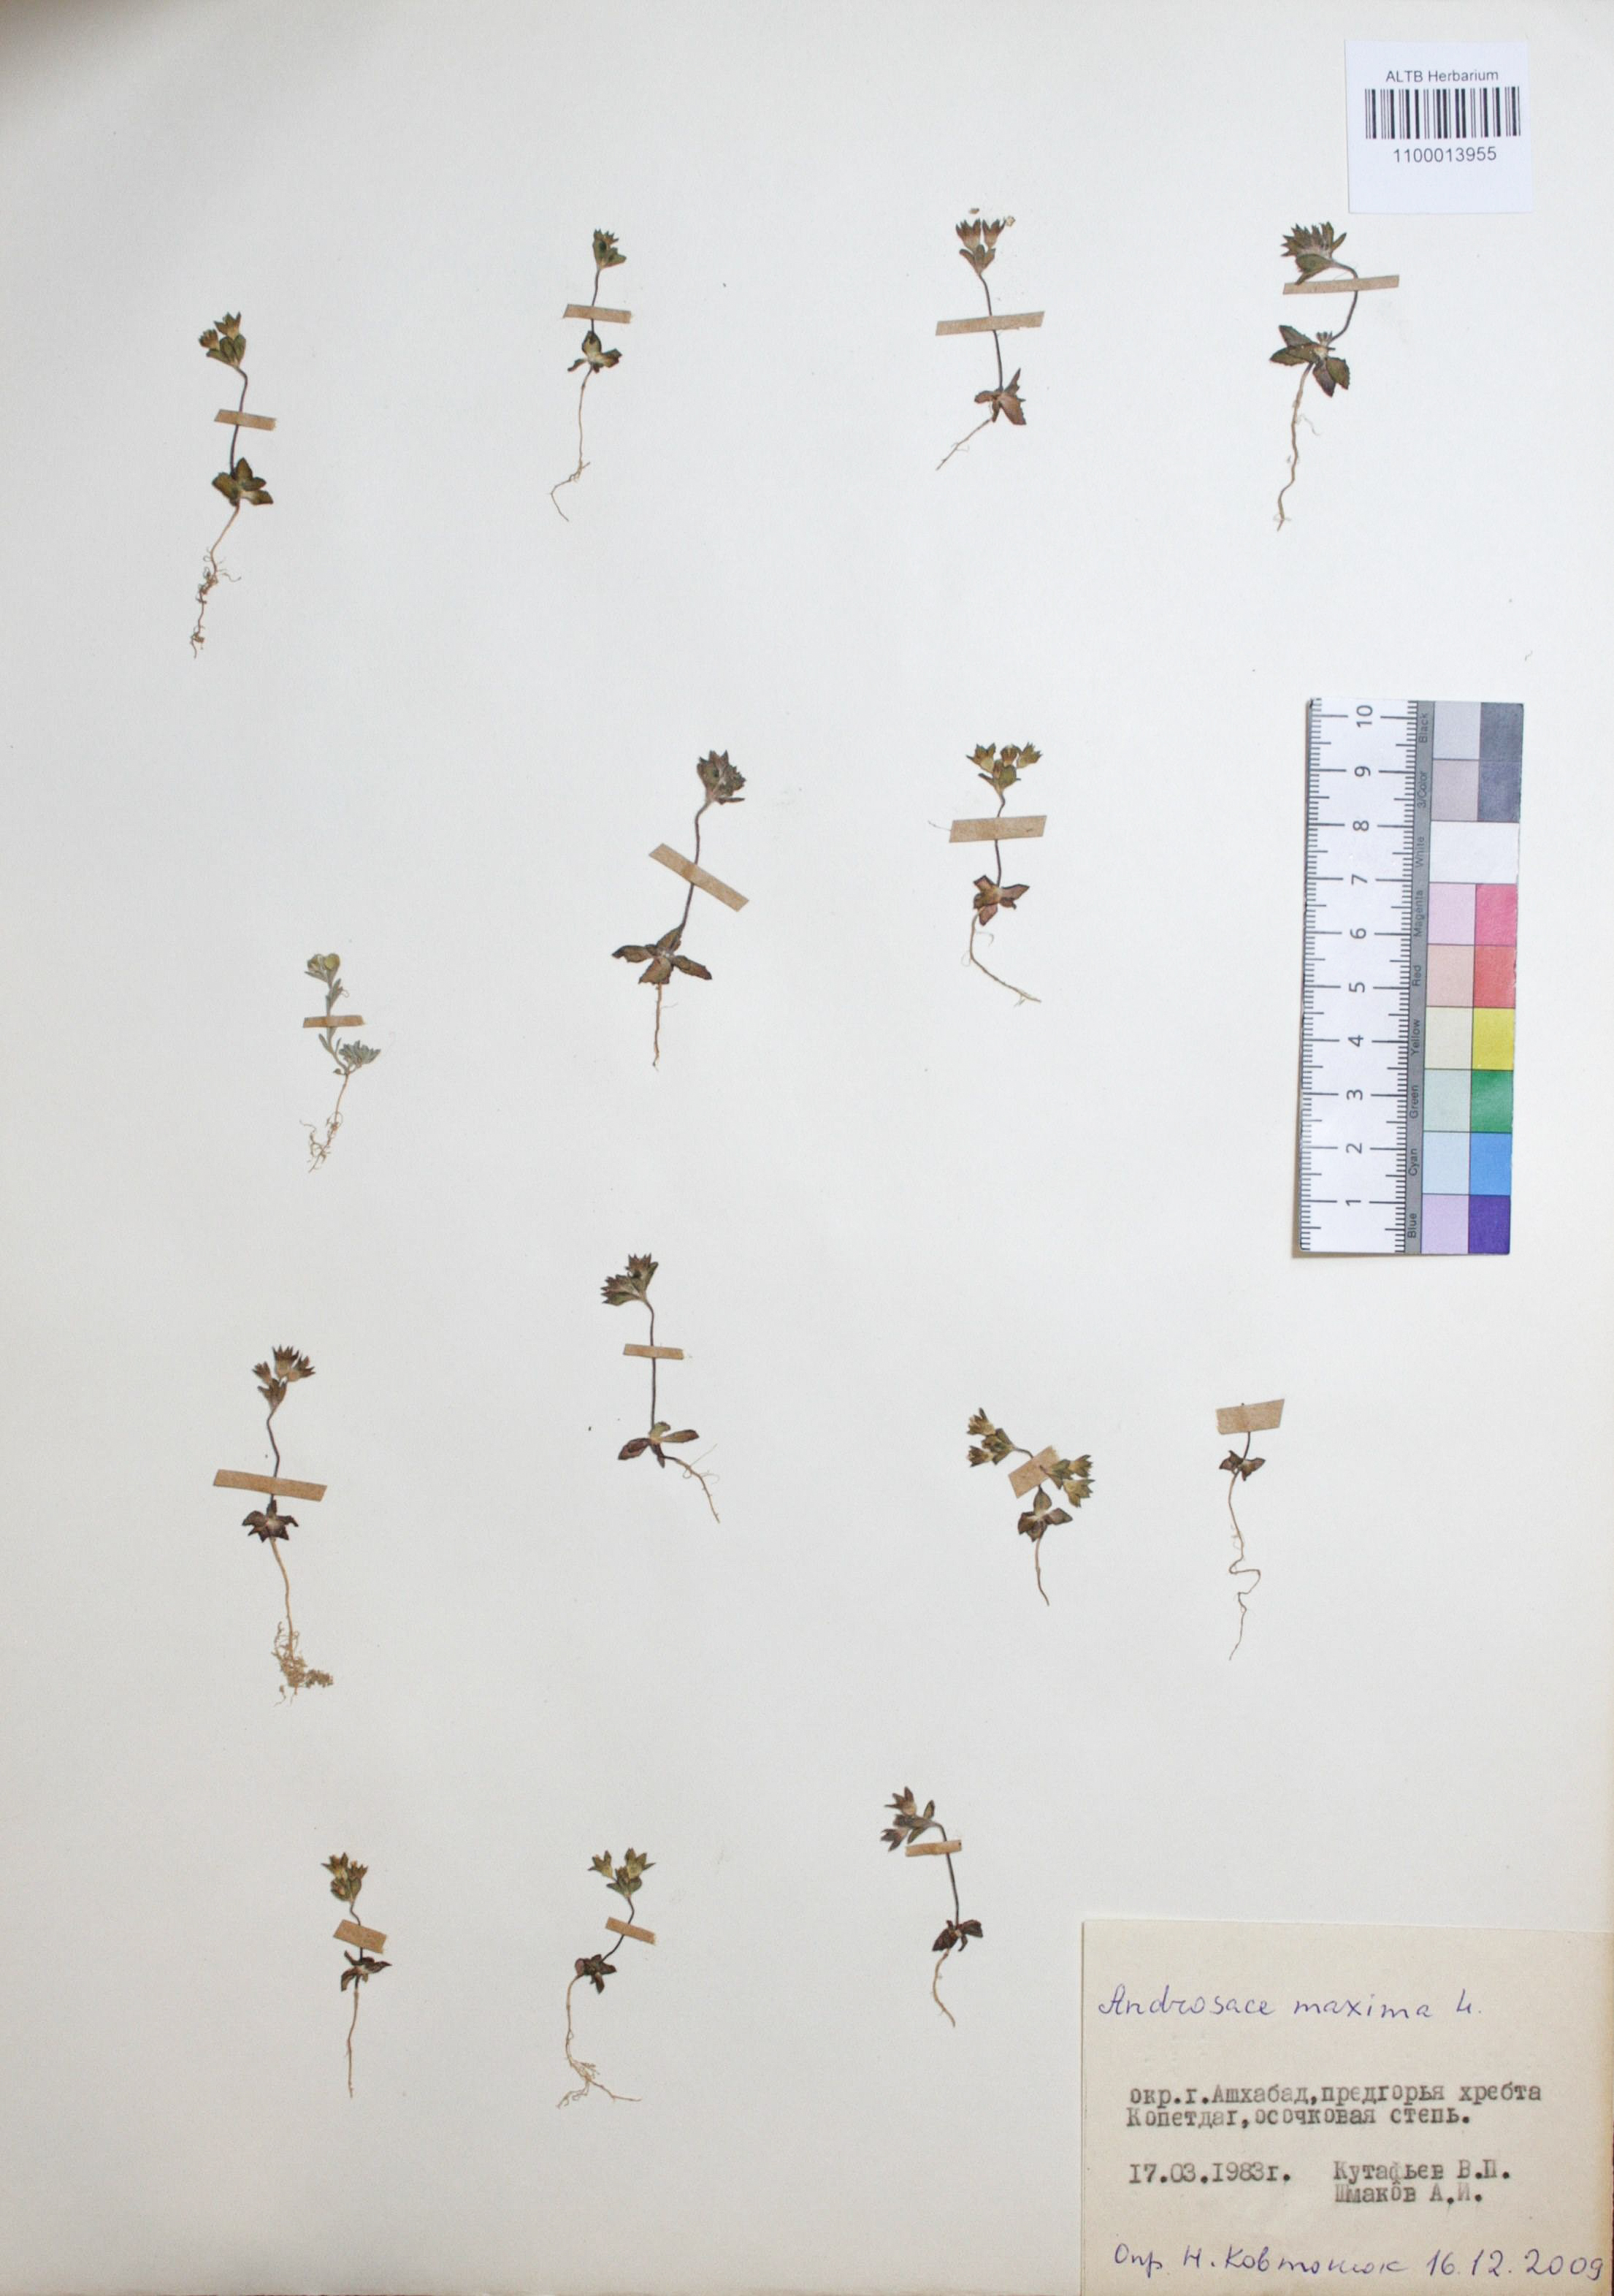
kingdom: Plantae
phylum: Tracheophyta
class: Magnoliopsida
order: Ericales
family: Primulaceae
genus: Androsace
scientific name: Androsace maxima
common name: Annual androsace
